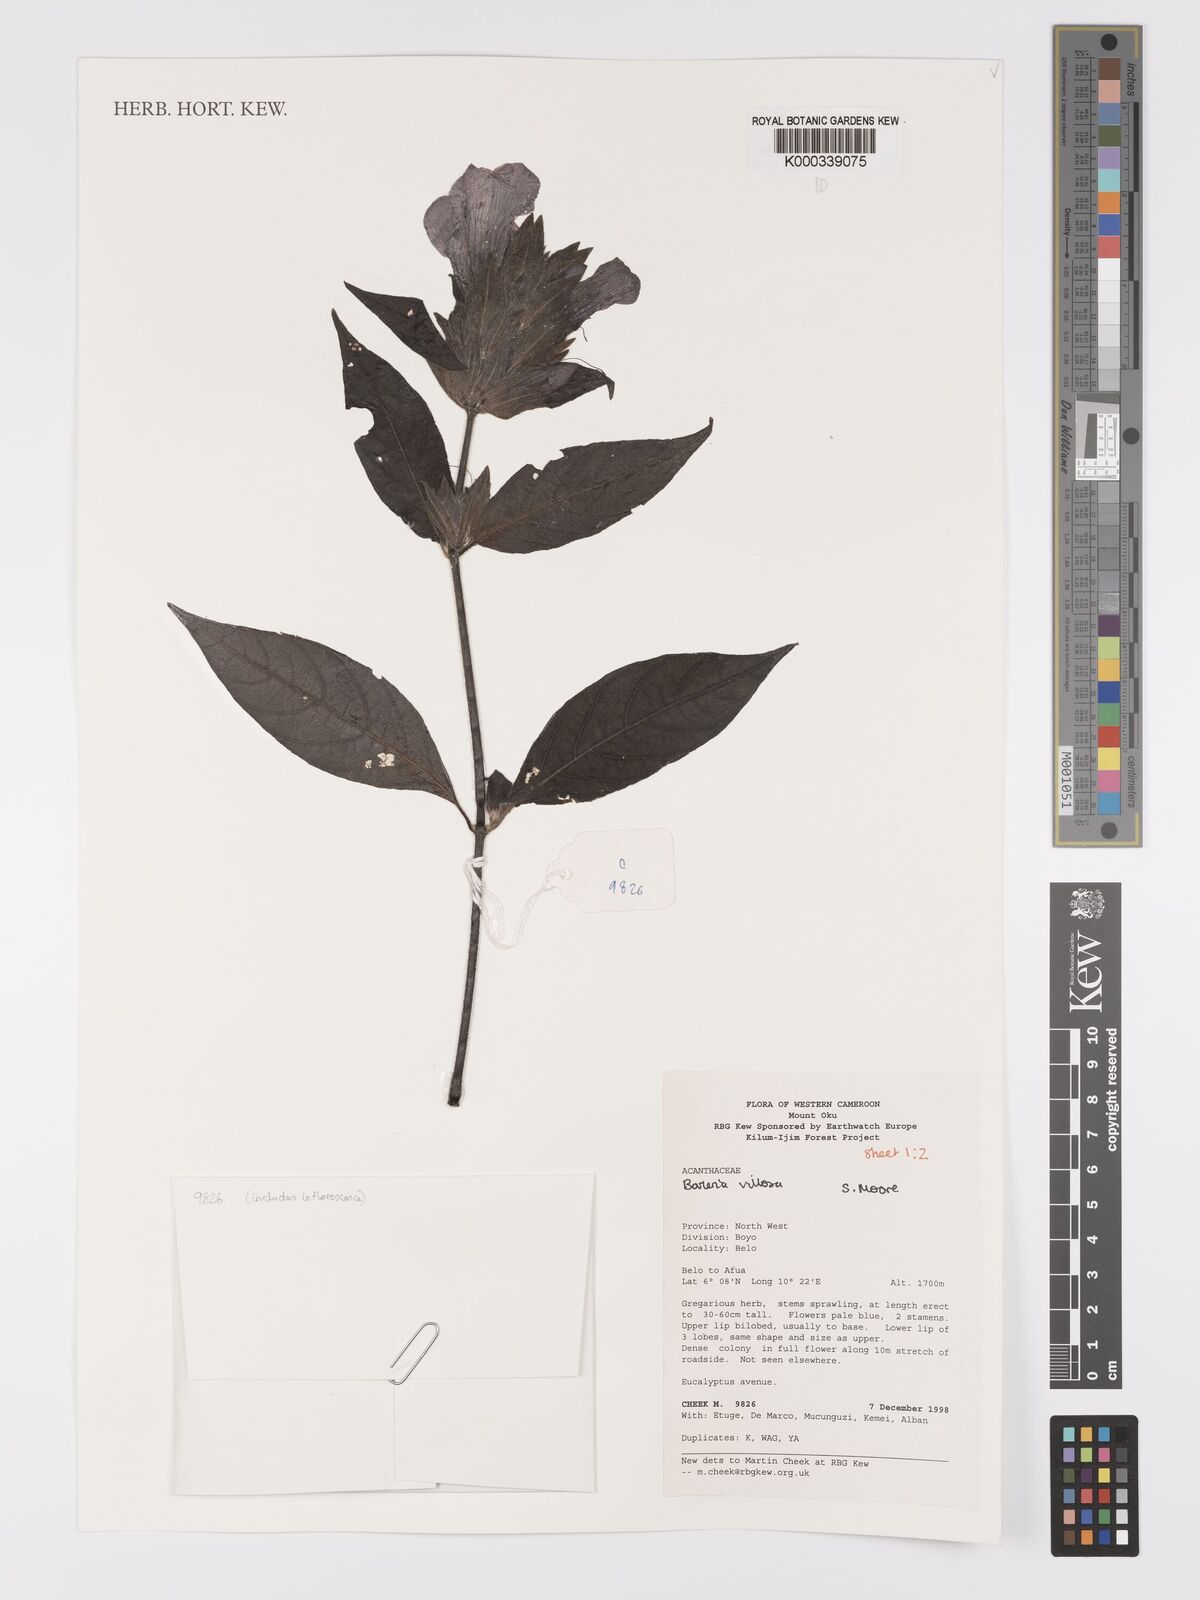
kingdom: Plantae
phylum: Tracheophyta
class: Magnoliopsida
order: Lamiales
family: Acanthaceae
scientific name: Acanthaceae
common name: Acanthaceae
